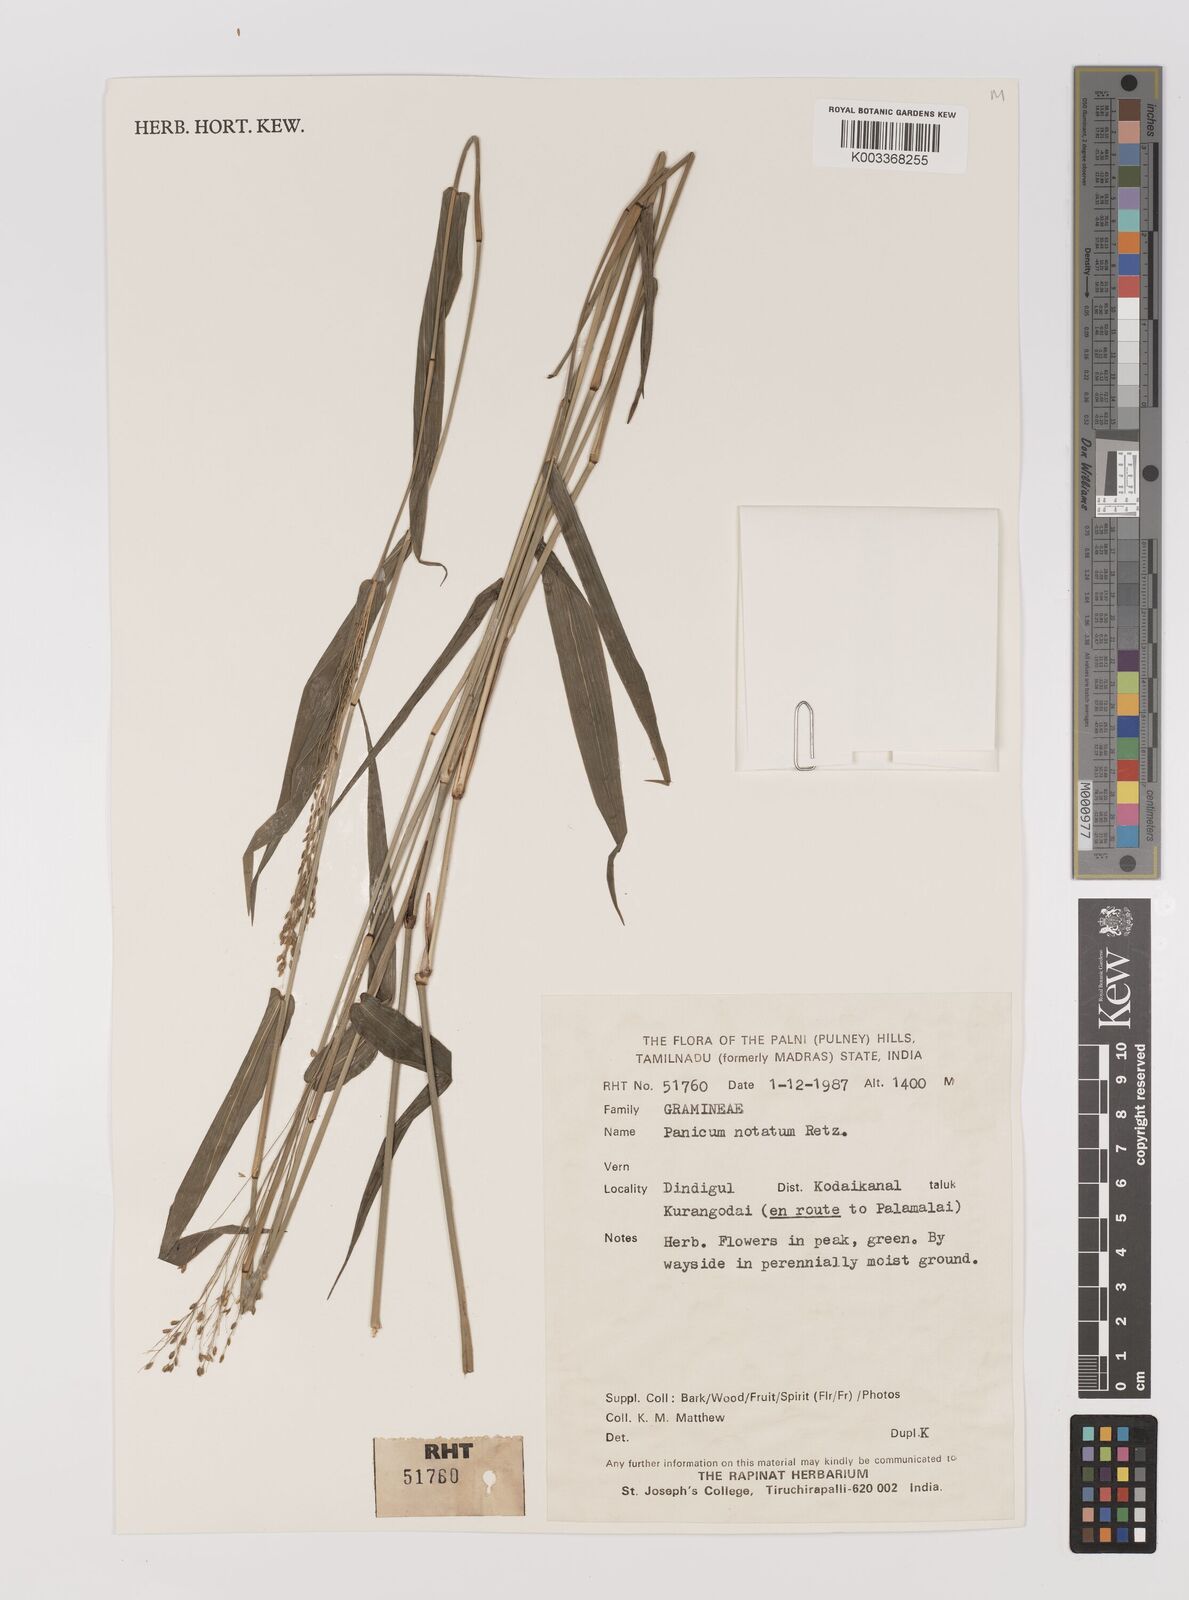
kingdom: Plantae
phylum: Tracheophyta
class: Liliopsida
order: Poales
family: Poaceae
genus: Panicum
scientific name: Panicum notatum
